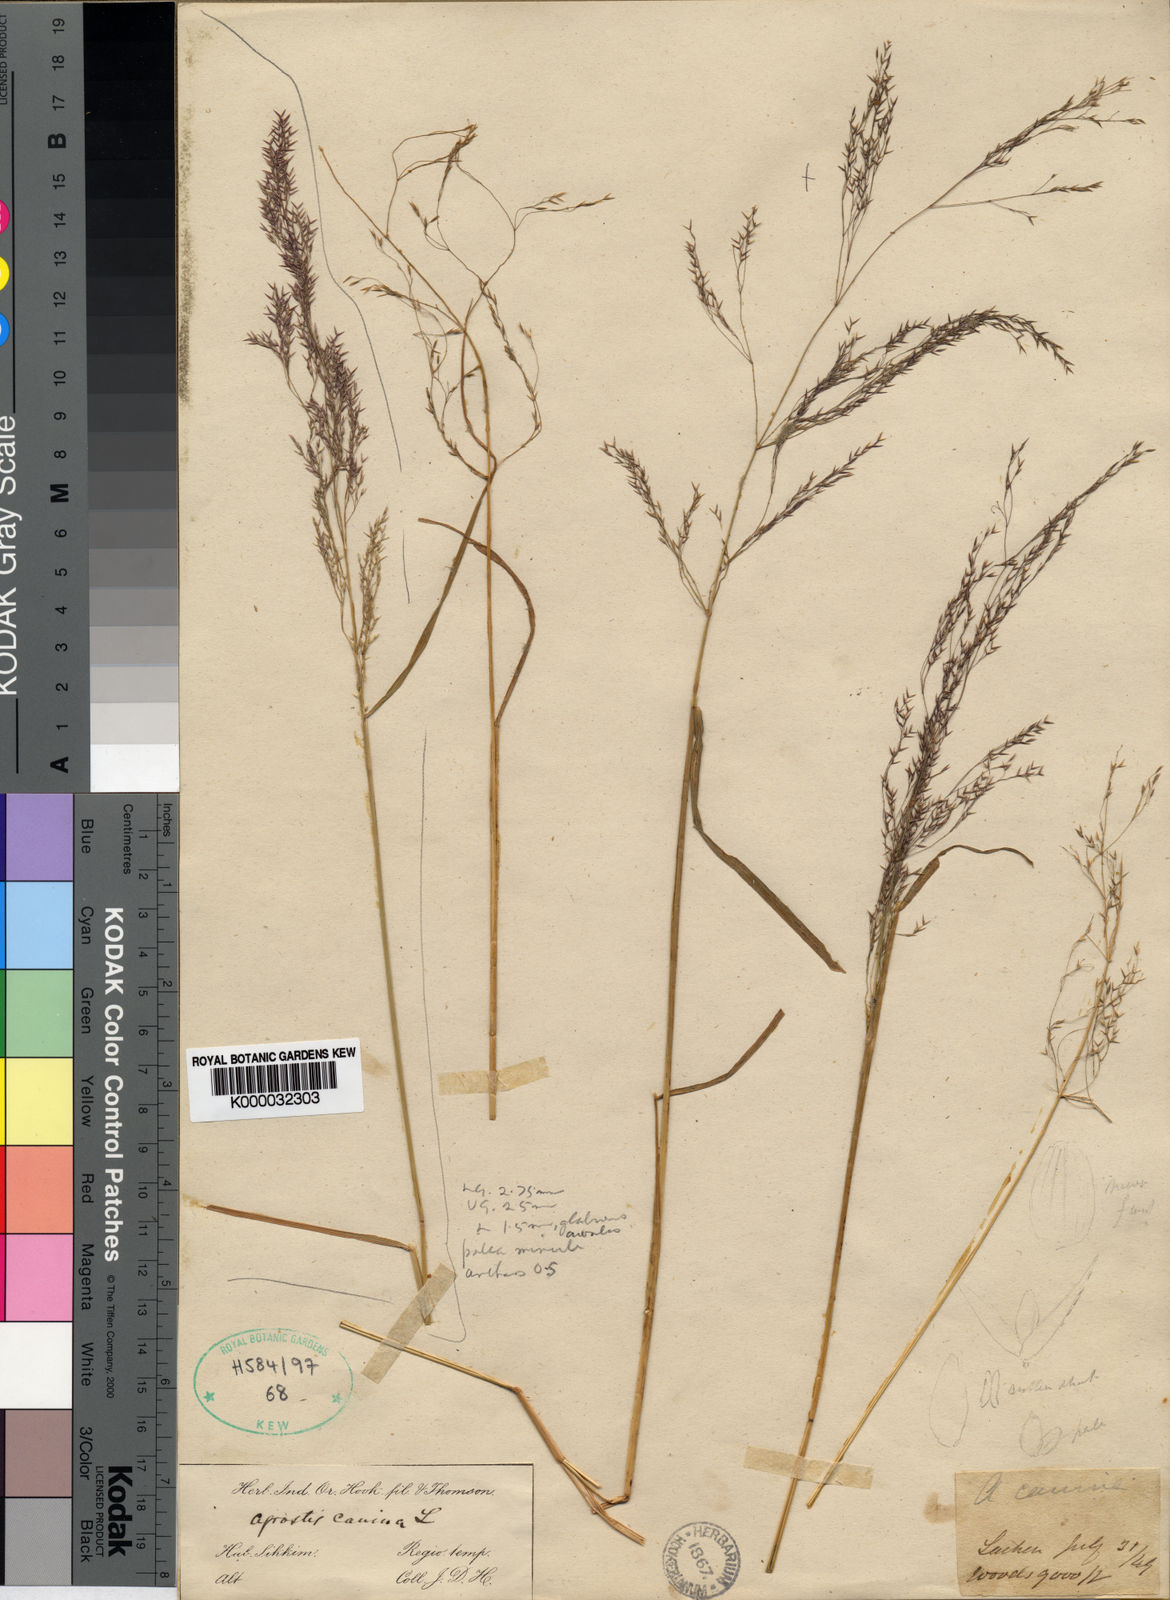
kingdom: Plantae
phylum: Tracheophyta
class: Liliopsida
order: Poales
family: Poaceae
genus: Agrostis
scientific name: Agrostis nervosa
